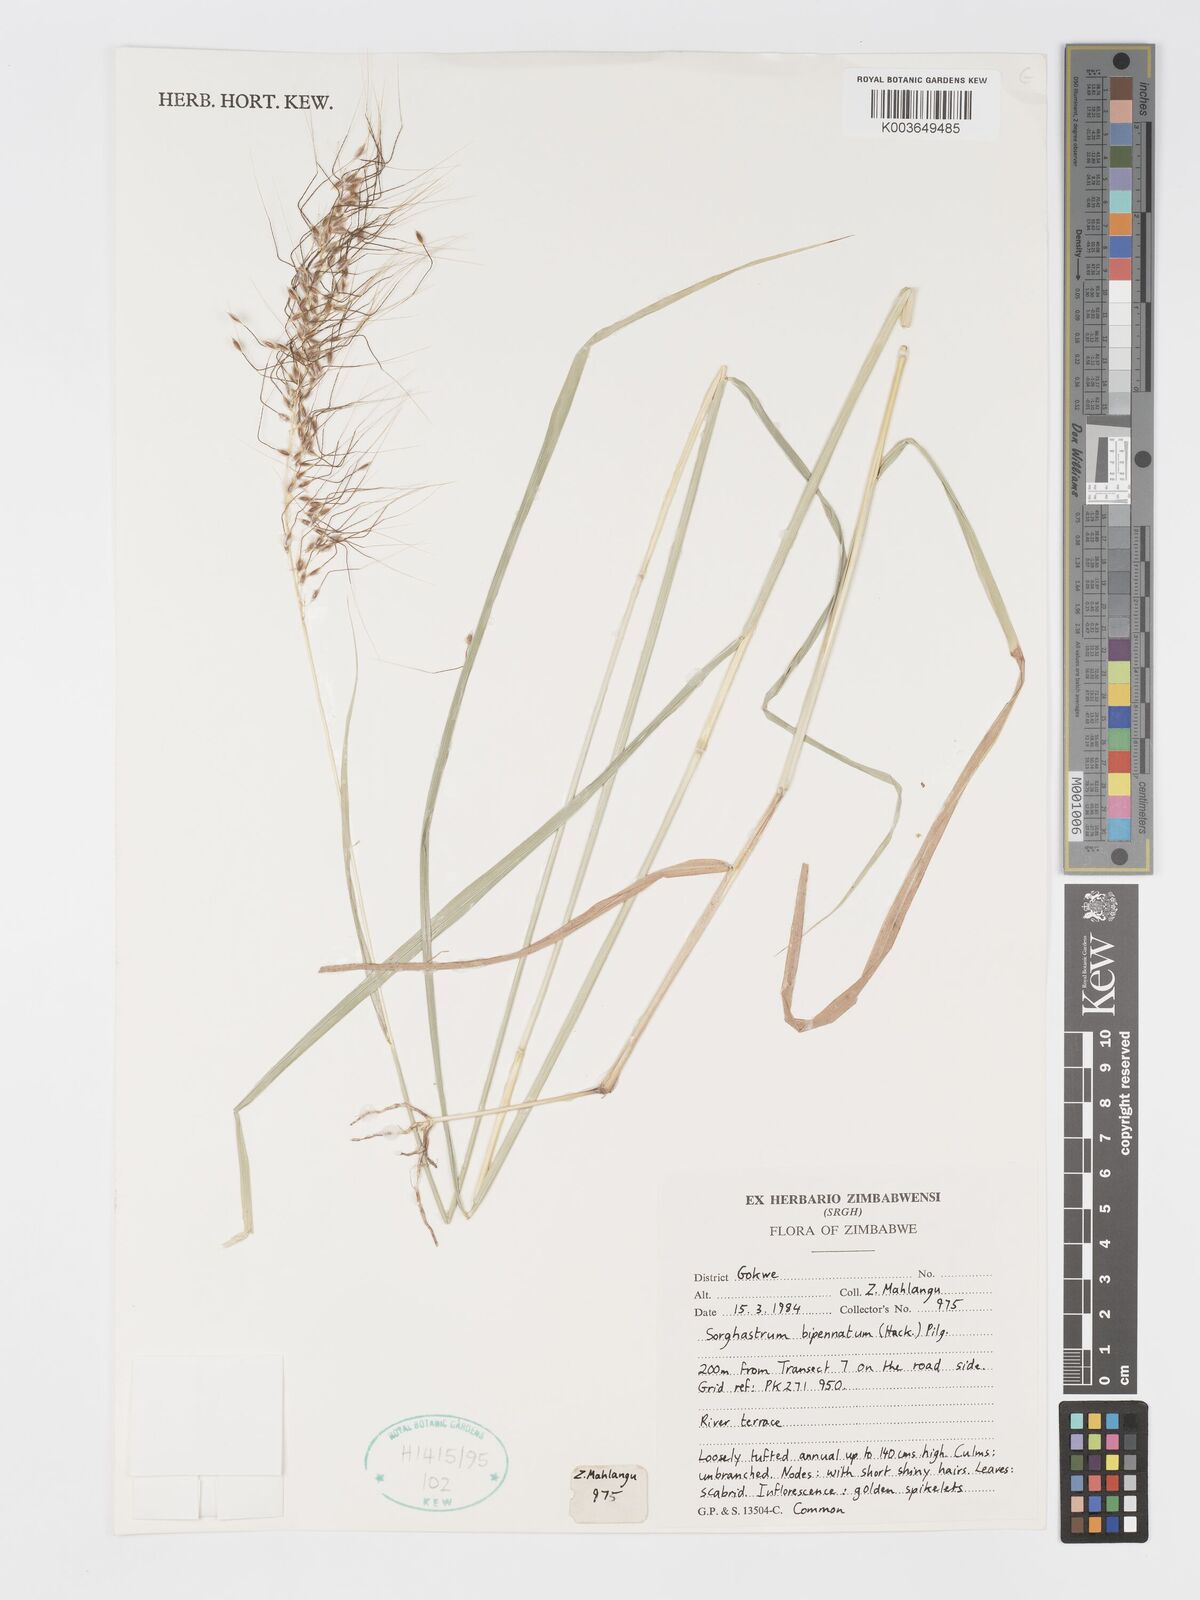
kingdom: Plantae
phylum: Tracheophyta
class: Liliopsida
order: Poales
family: Poaceae
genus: Sorghastrum
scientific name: Sorghastrum incompletum
